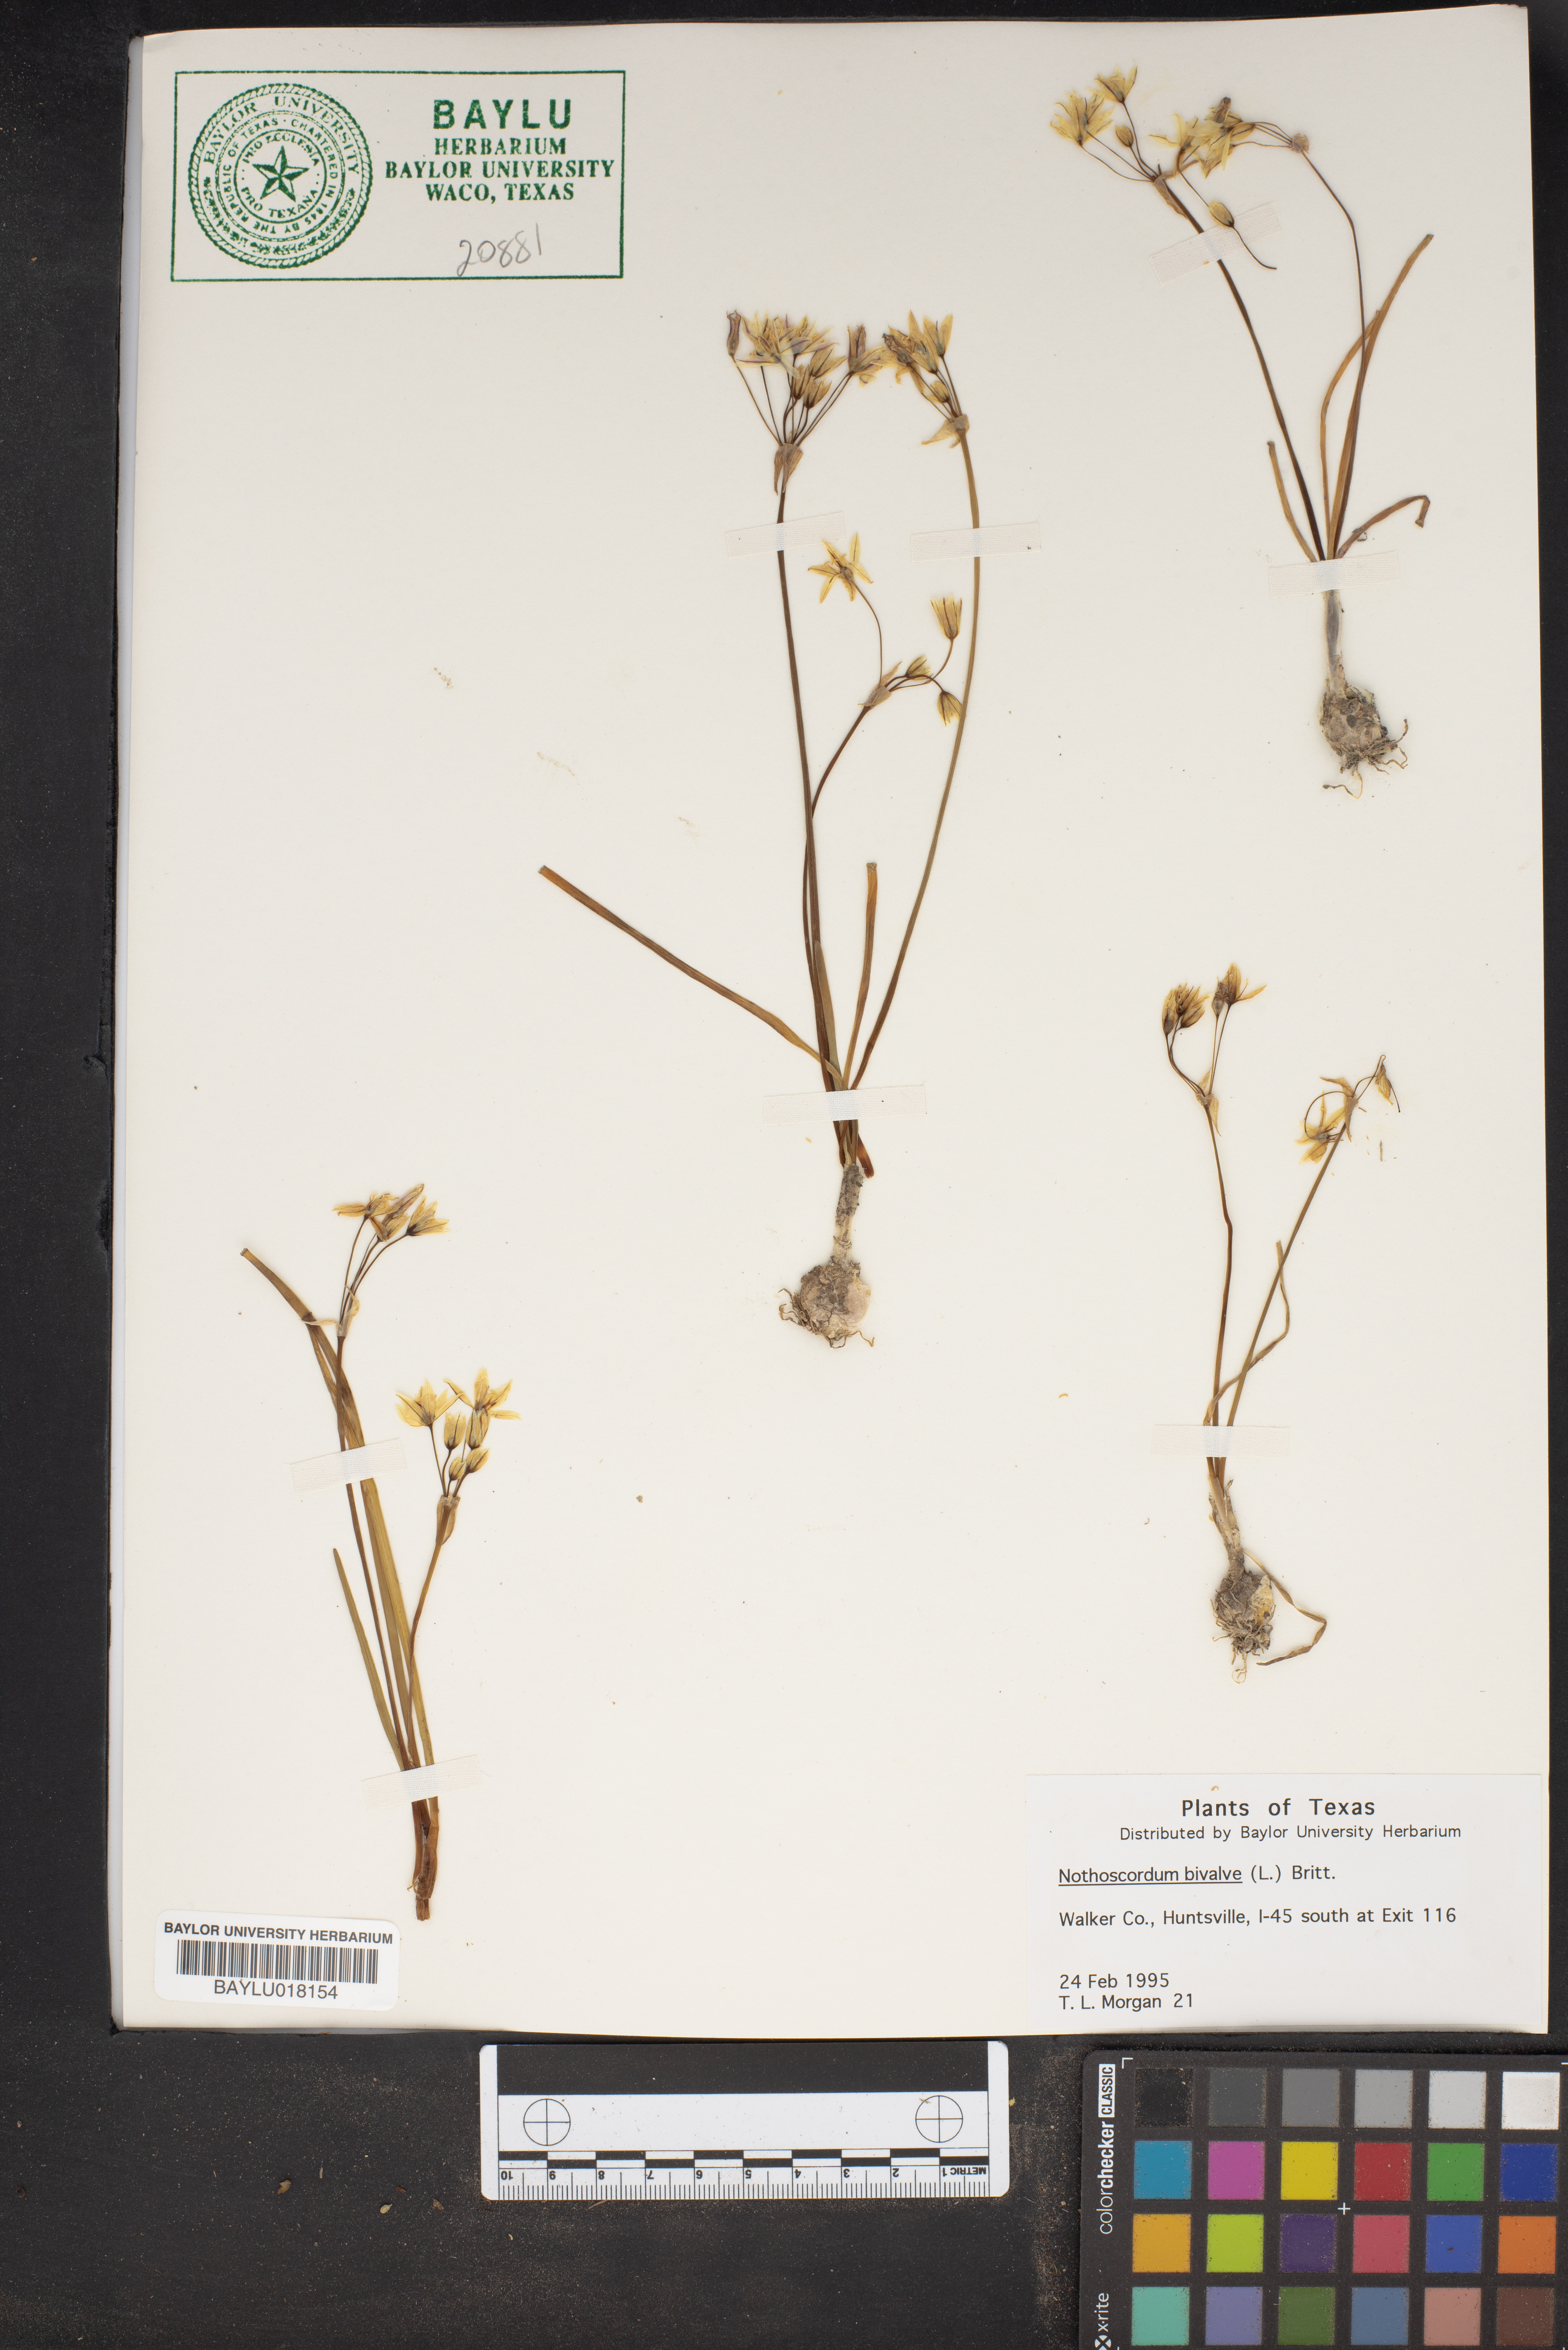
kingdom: Plantae
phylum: Tracheophyta
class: Liliopsida
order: Asparagales
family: Amaryllidaceae
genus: Nothoscordum
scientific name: Nothoscordum bivalve
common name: Crow-poison
